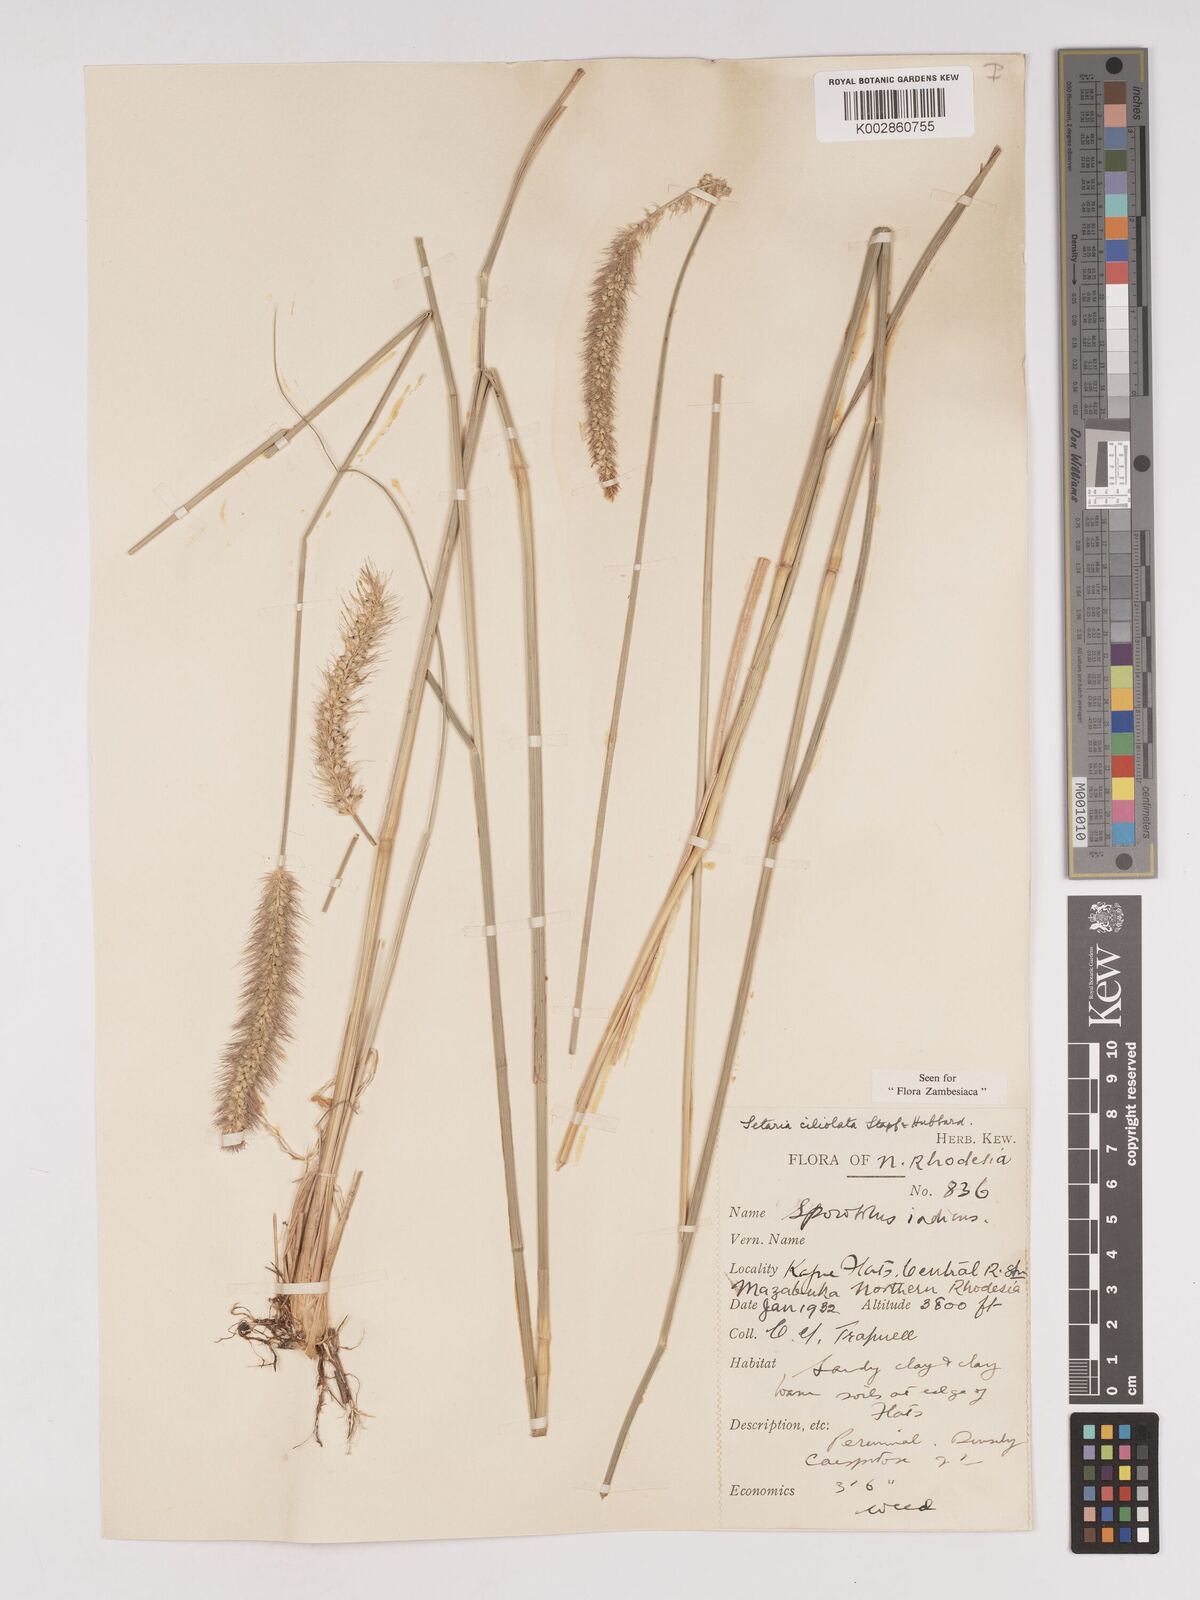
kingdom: Plantae
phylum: Tracheophyta
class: Liliopsida
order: Poales
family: Poaceae
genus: Setaria
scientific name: Setaria incrassata
